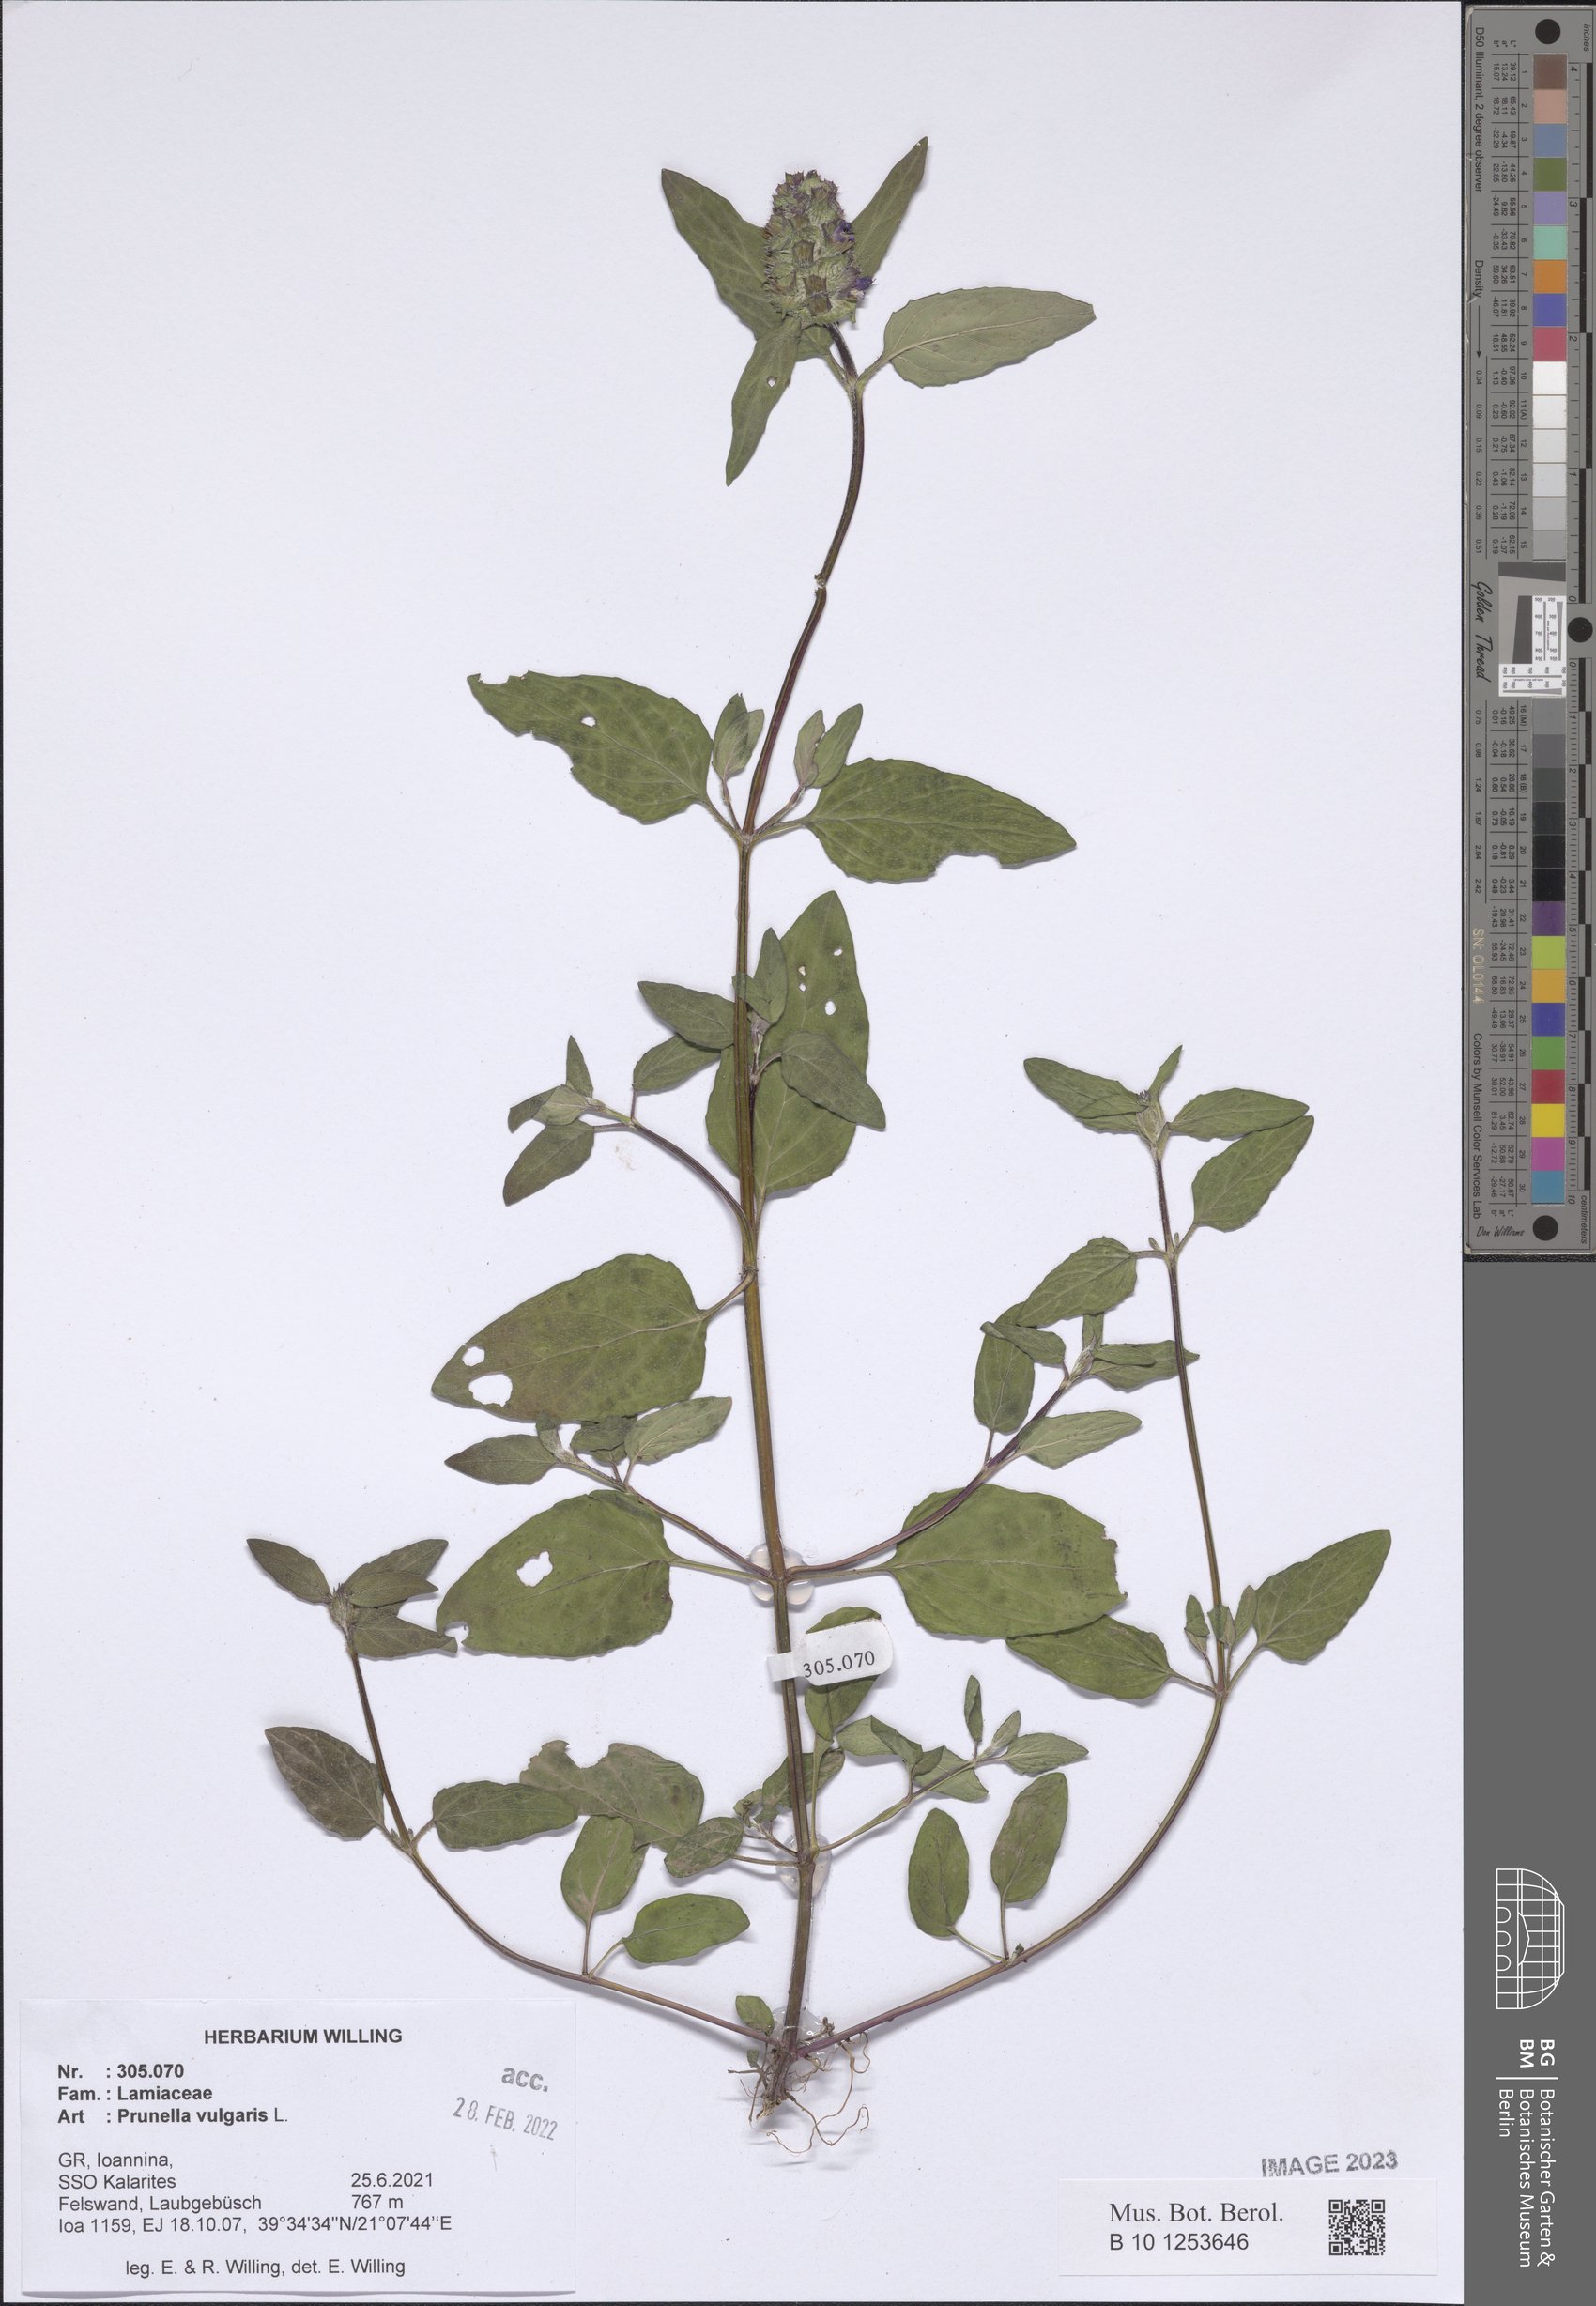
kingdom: Plantae
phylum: Tracheophyta
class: Magnoliopsida
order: Lamiales
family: Lamiaceae
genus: Prunella
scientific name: Prunella vulgaris
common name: Heal-all
